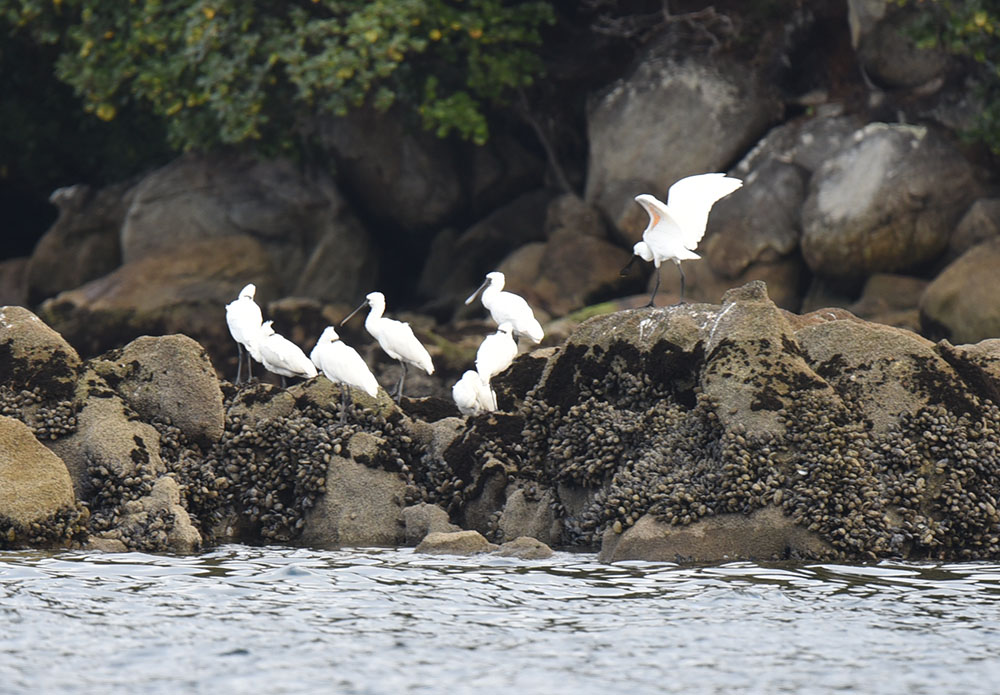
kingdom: Animalia
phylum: Chordata
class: Aves
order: Pelecaniformes
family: Threskiornithidae
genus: Platalea
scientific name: Platalea regia
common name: Royal spoonbill
